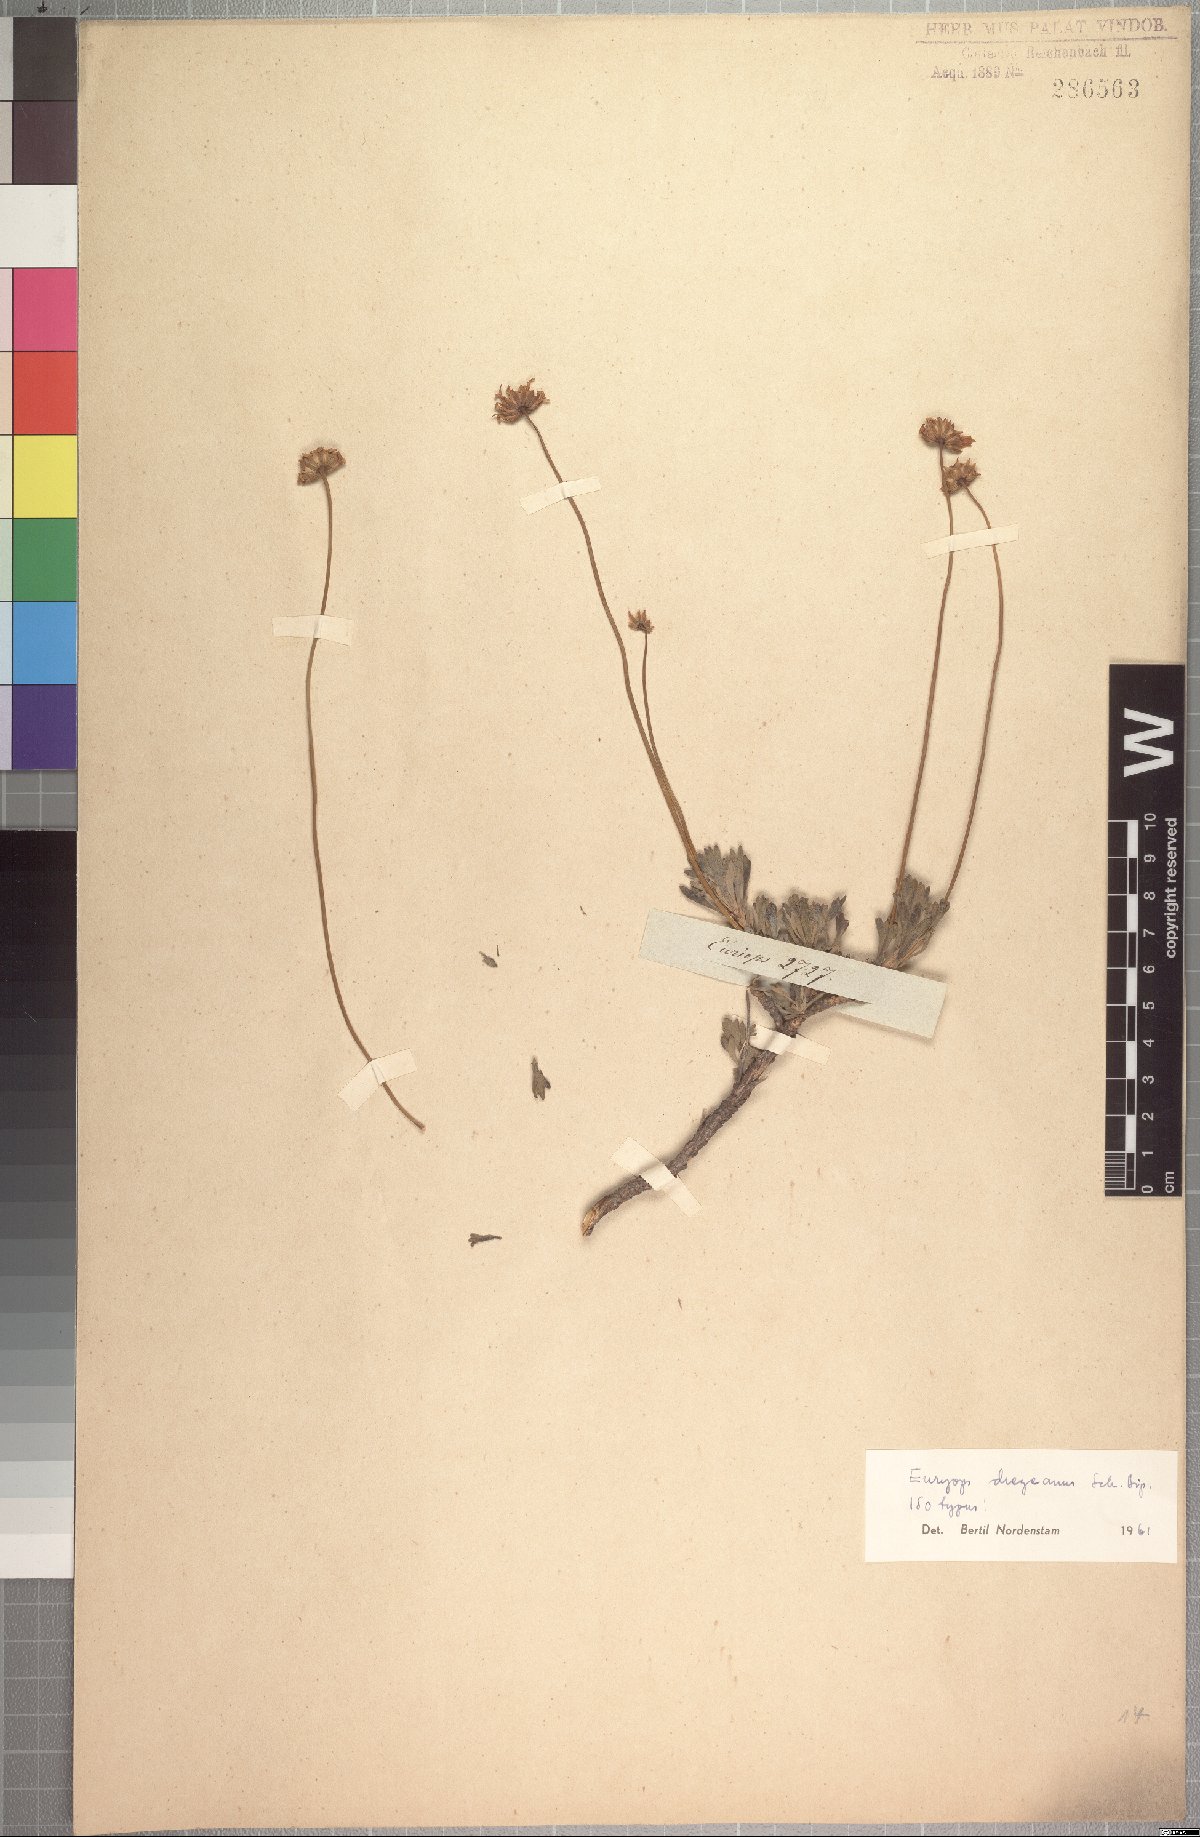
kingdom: Plantae
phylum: Tracheophyta
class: Magnoliopsida
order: Asterales
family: Asteraceae
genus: Euryops
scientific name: Euryops dregeanus
